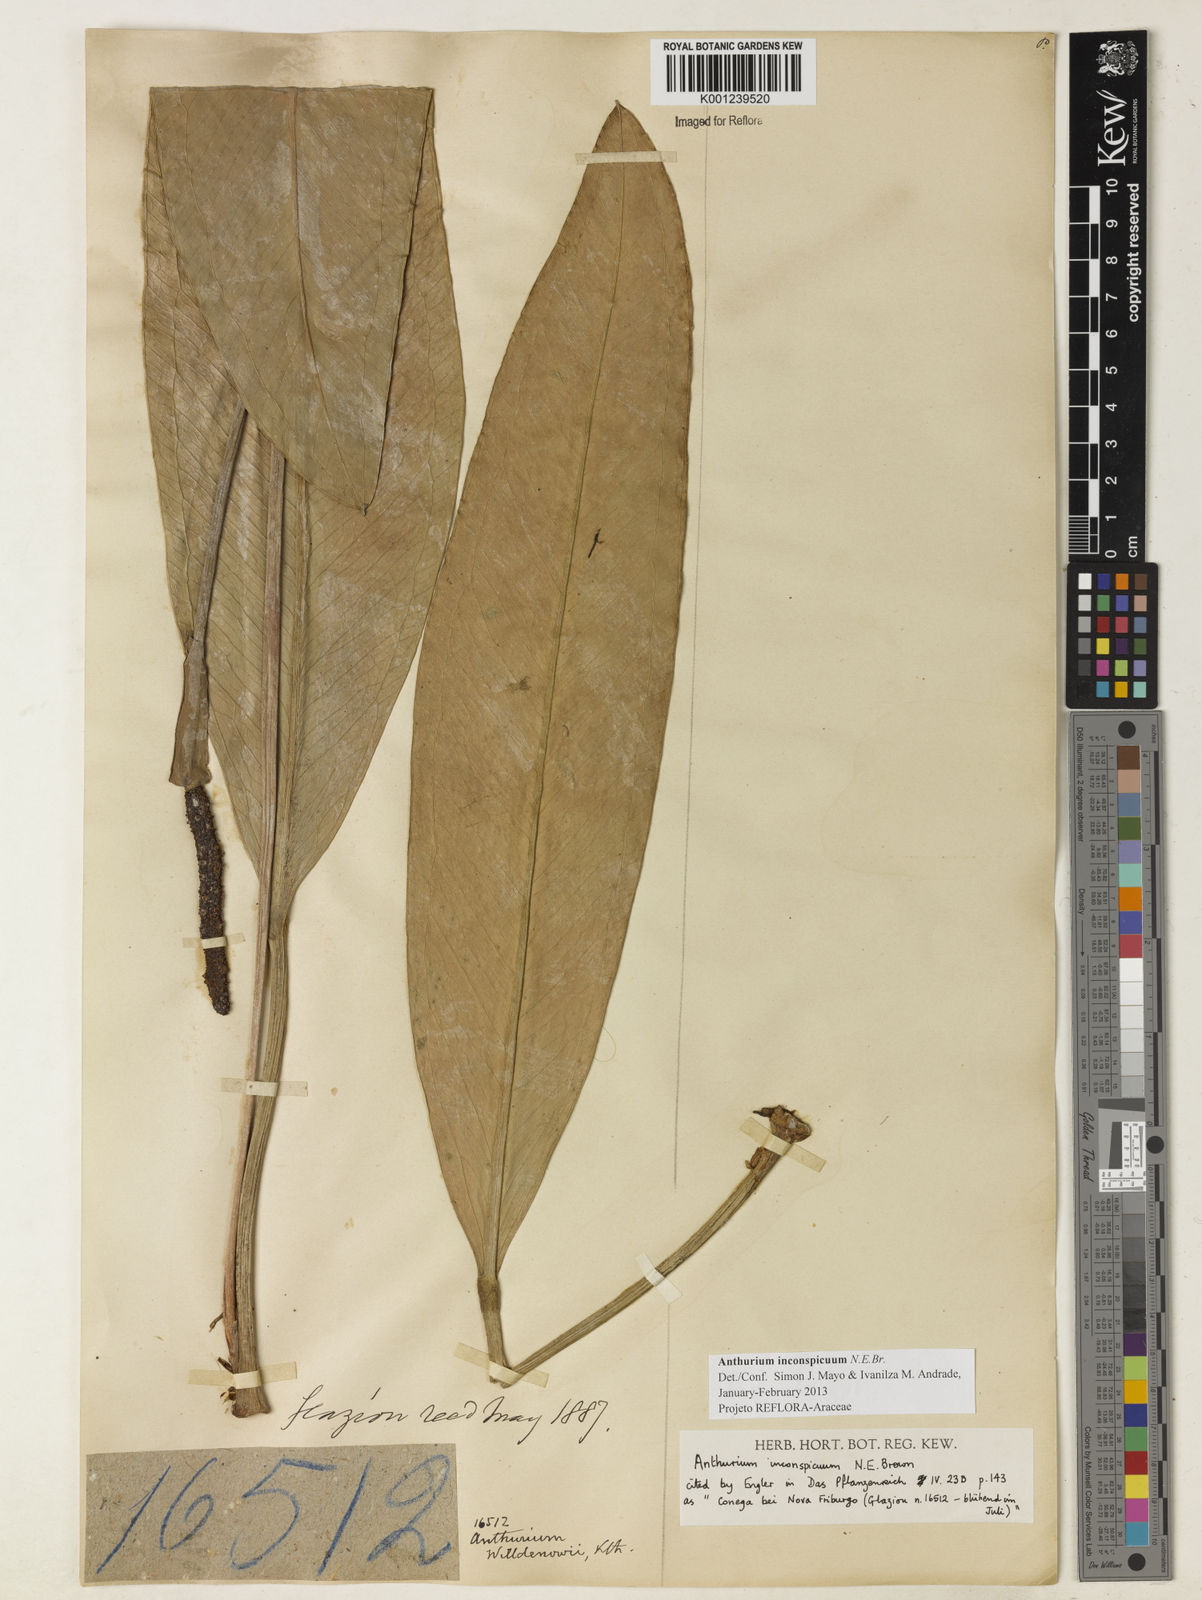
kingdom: Plantae
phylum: Tracheophyta
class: Liliopsida
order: Alismatales
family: Araceae
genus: Anthurium
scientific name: Anthurium inconspicuum
